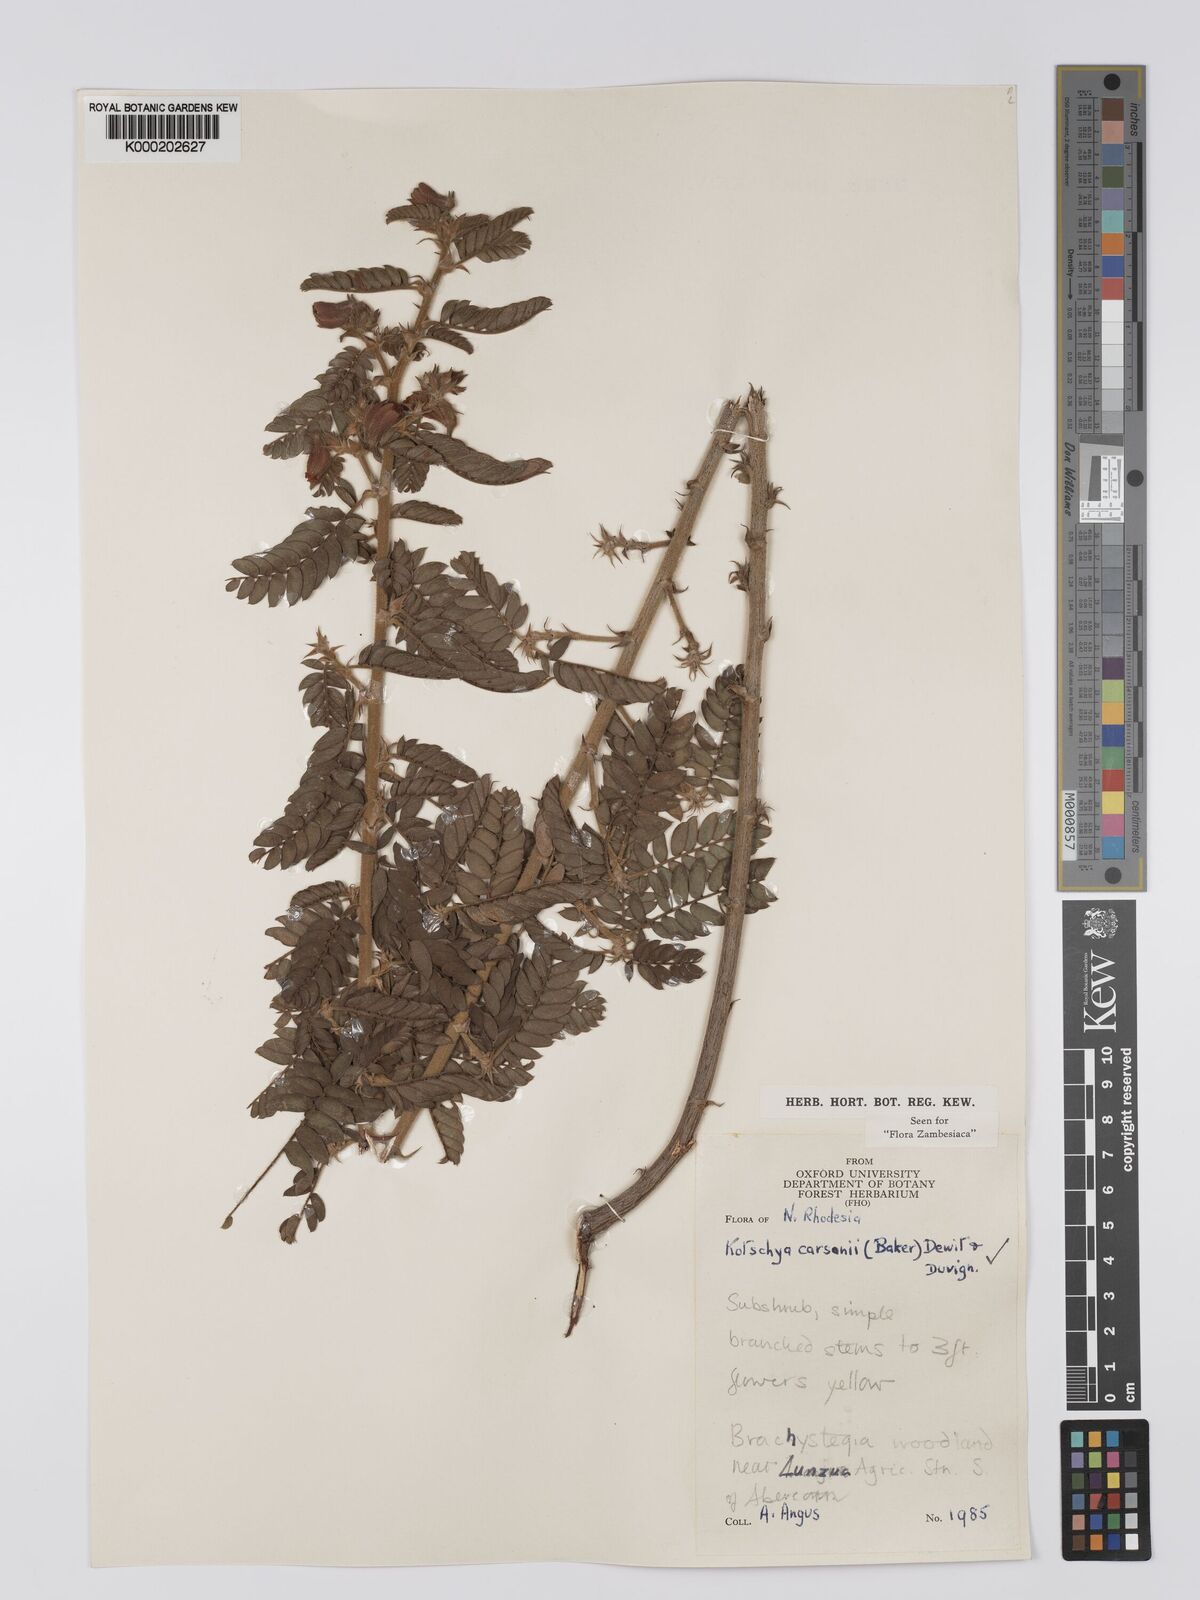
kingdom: Plantae
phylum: Tracheophyta
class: Magnoliopsida
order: Fabales
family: Fabaceae
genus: Kotschya
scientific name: Kotschya carsonii
